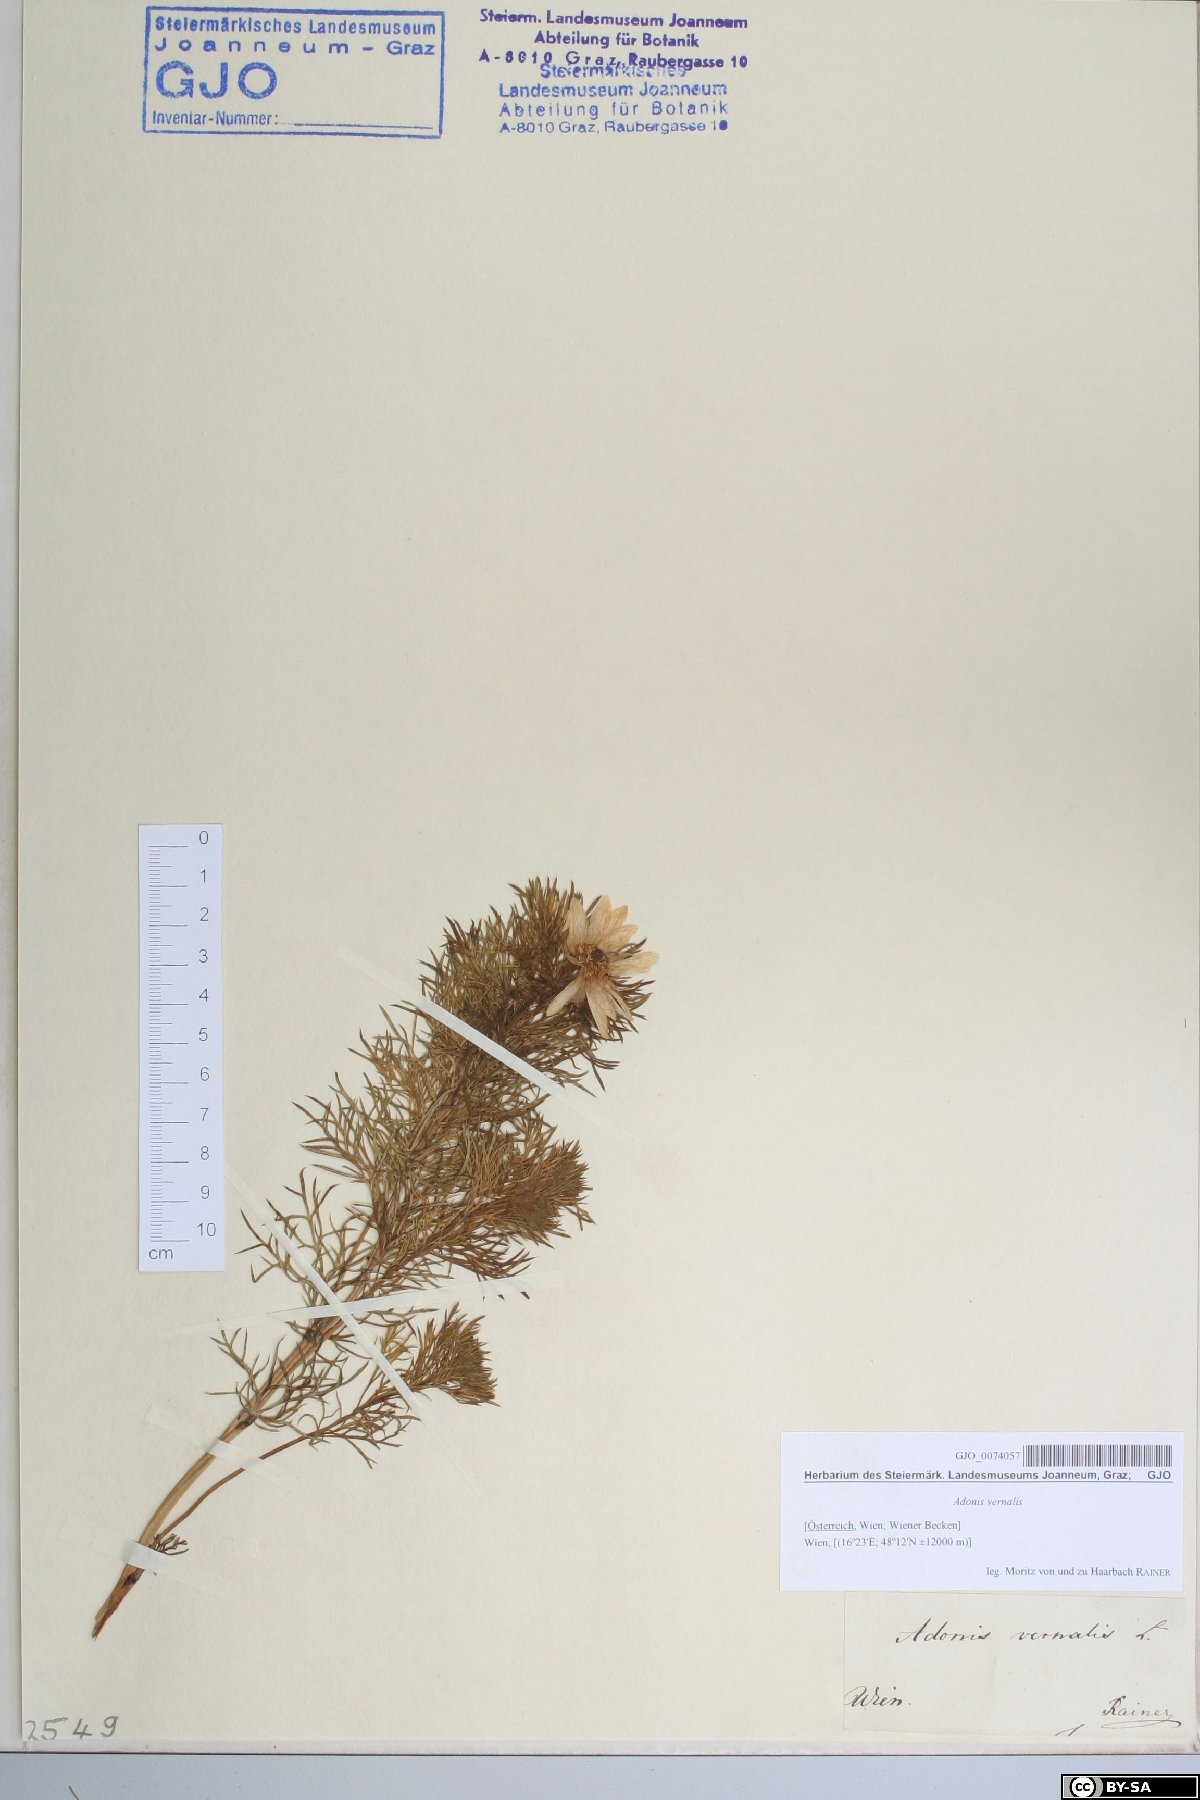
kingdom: Plantae
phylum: Tracheophyta
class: Magnoliopsida
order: Ranunculales
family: Ranunculaceae
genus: Adonis
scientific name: Adonis vernalis
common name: Yellow pheasants-eye
